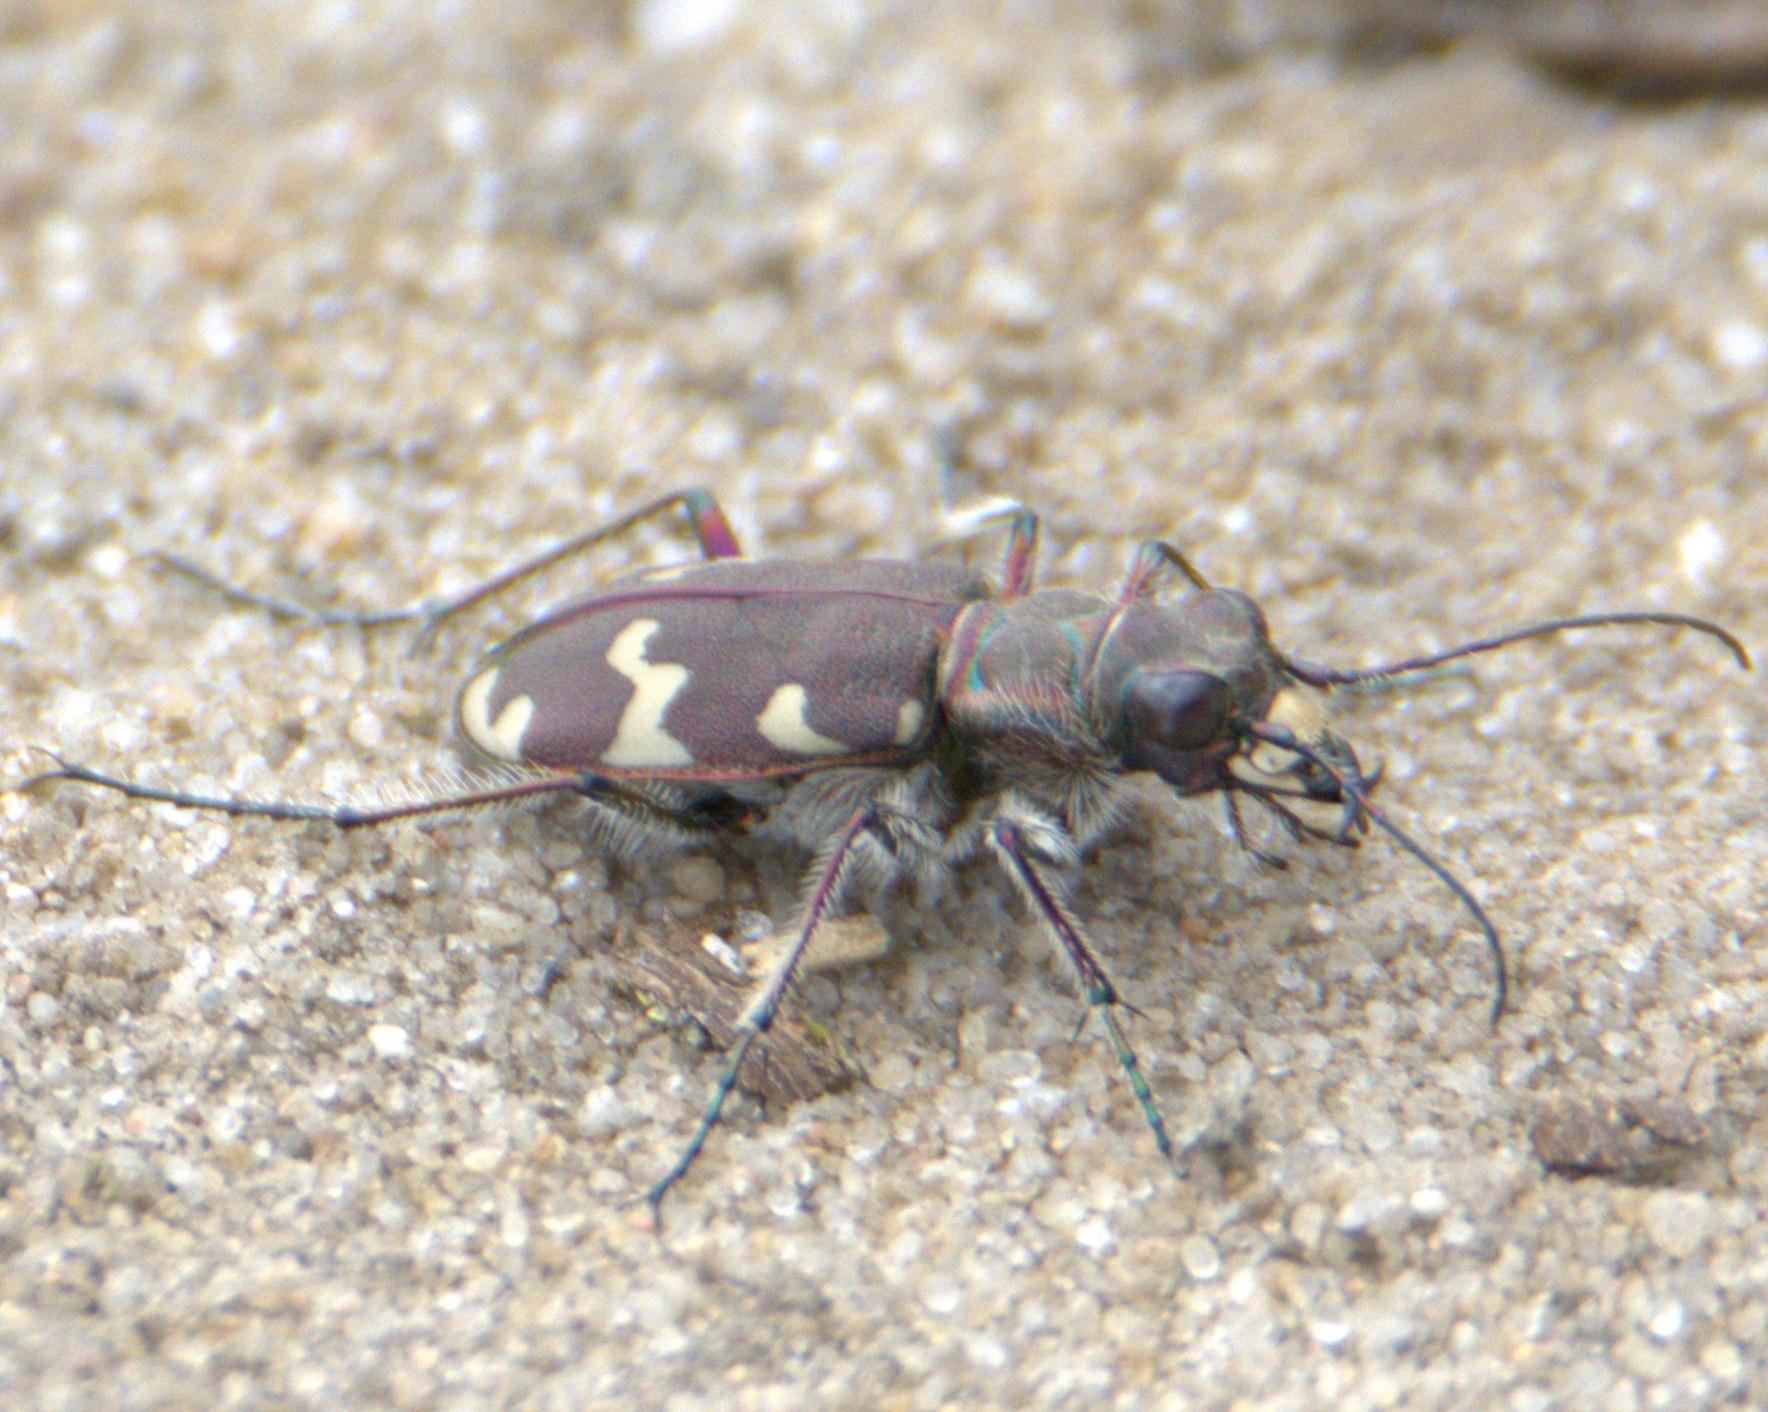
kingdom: Animalia
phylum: Arthropoda
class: Insecta
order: Coleoptera
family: Carabidae
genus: Cicindela
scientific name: Cicindela hybrida
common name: Brun sandspringer
